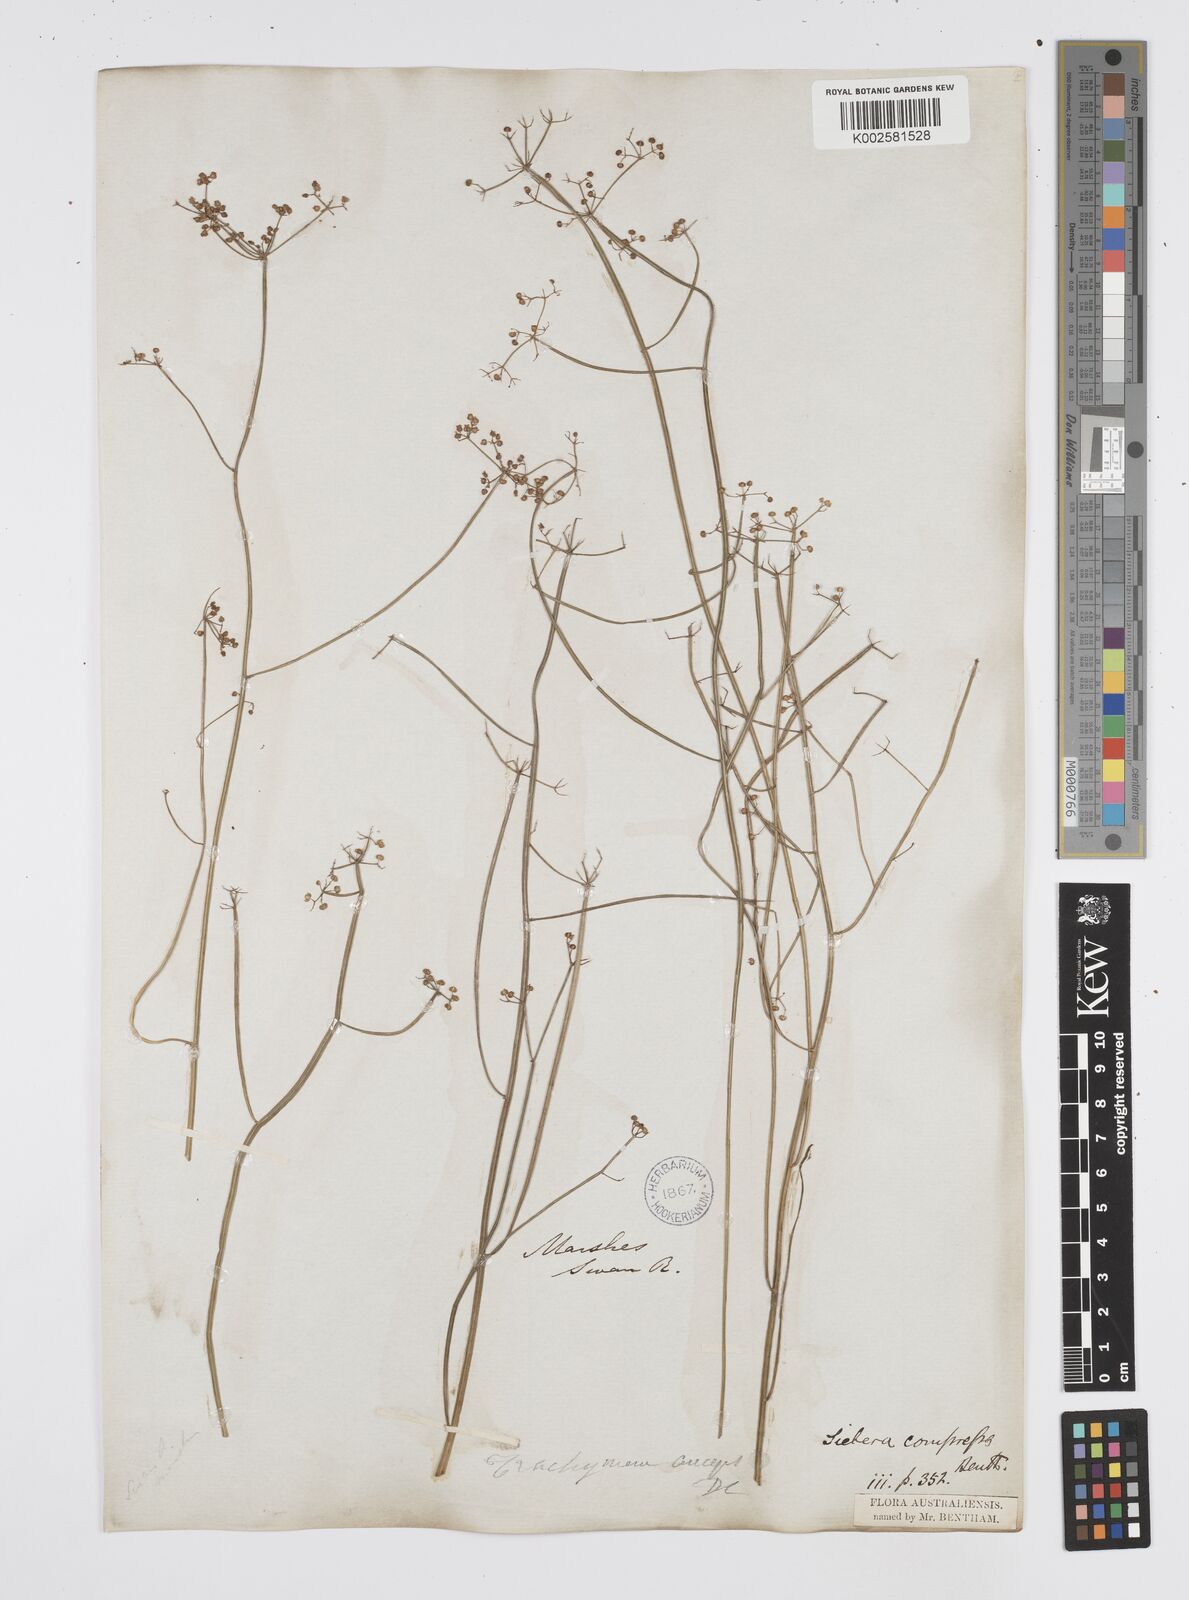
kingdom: Plantae
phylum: Tracheophyta
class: Magnoliopsida
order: Apiales
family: Apiaceae
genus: Centella
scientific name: Centella
